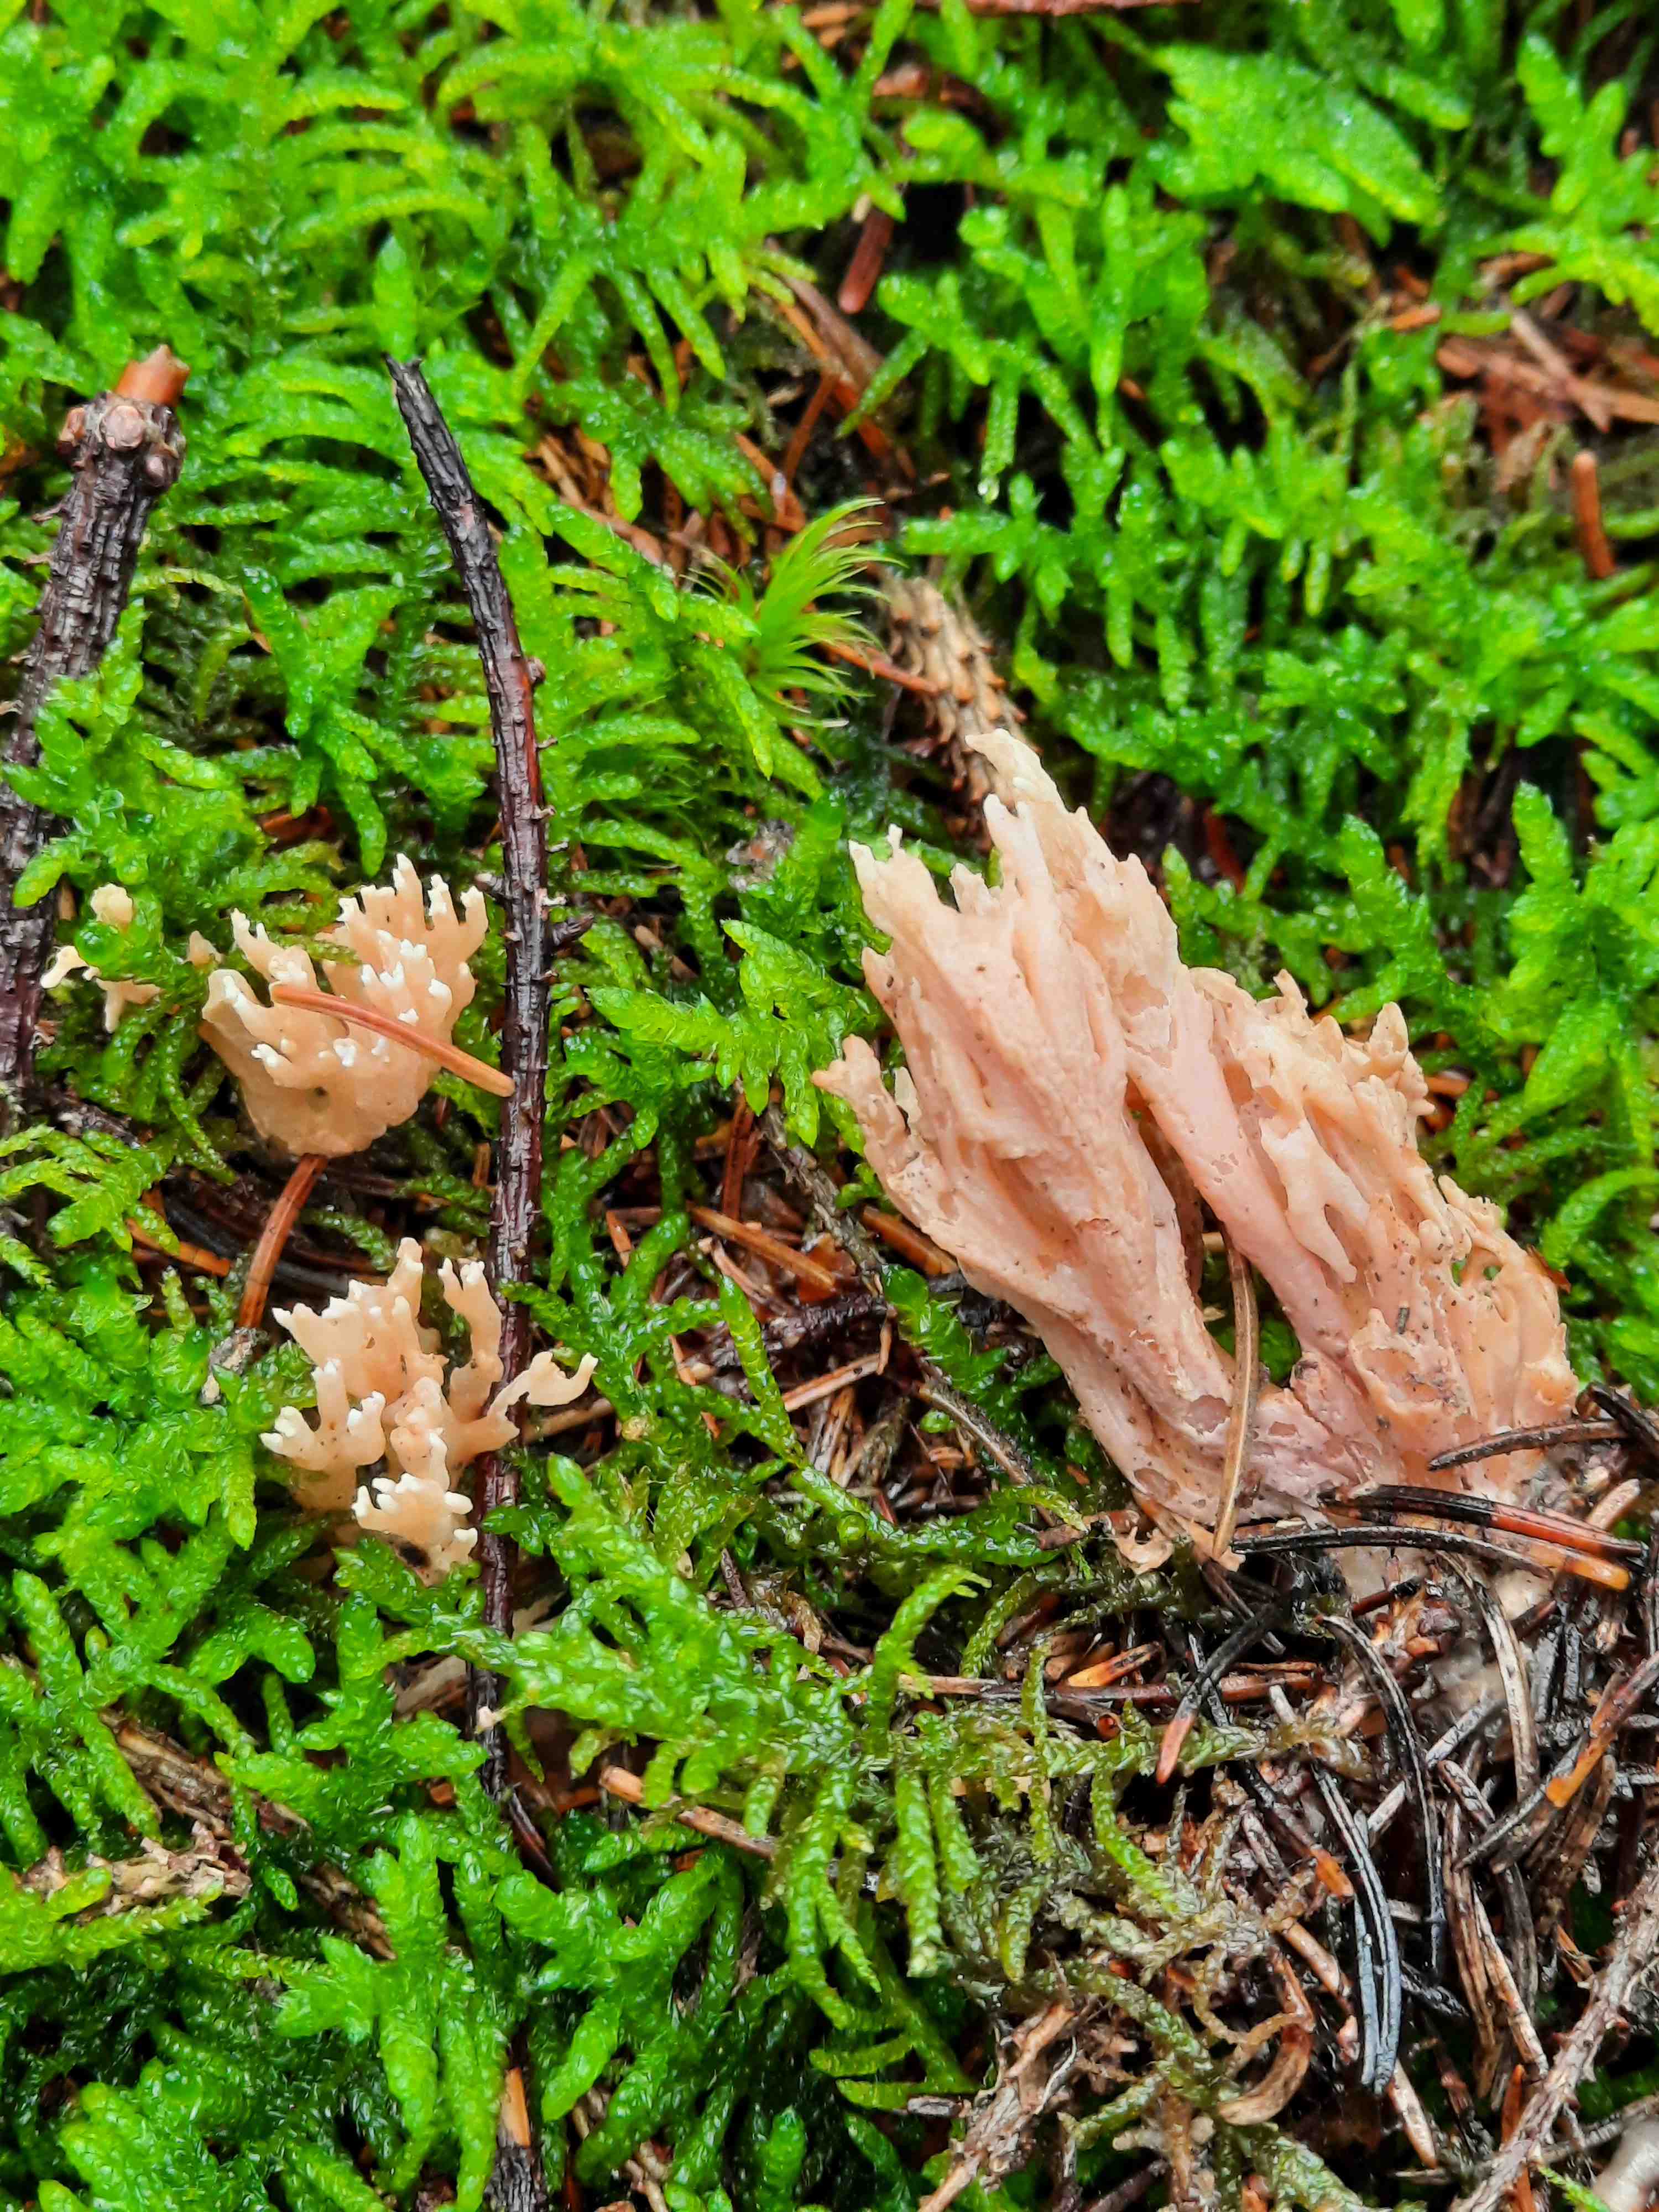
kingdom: Fungi
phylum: Basidiomycota
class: Agaricomycetes
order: Gomphales
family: Gomphaceae
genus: Phaeoclavulina
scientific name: Phaeoclavulina eumorpha
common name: gran-koralsvamp
